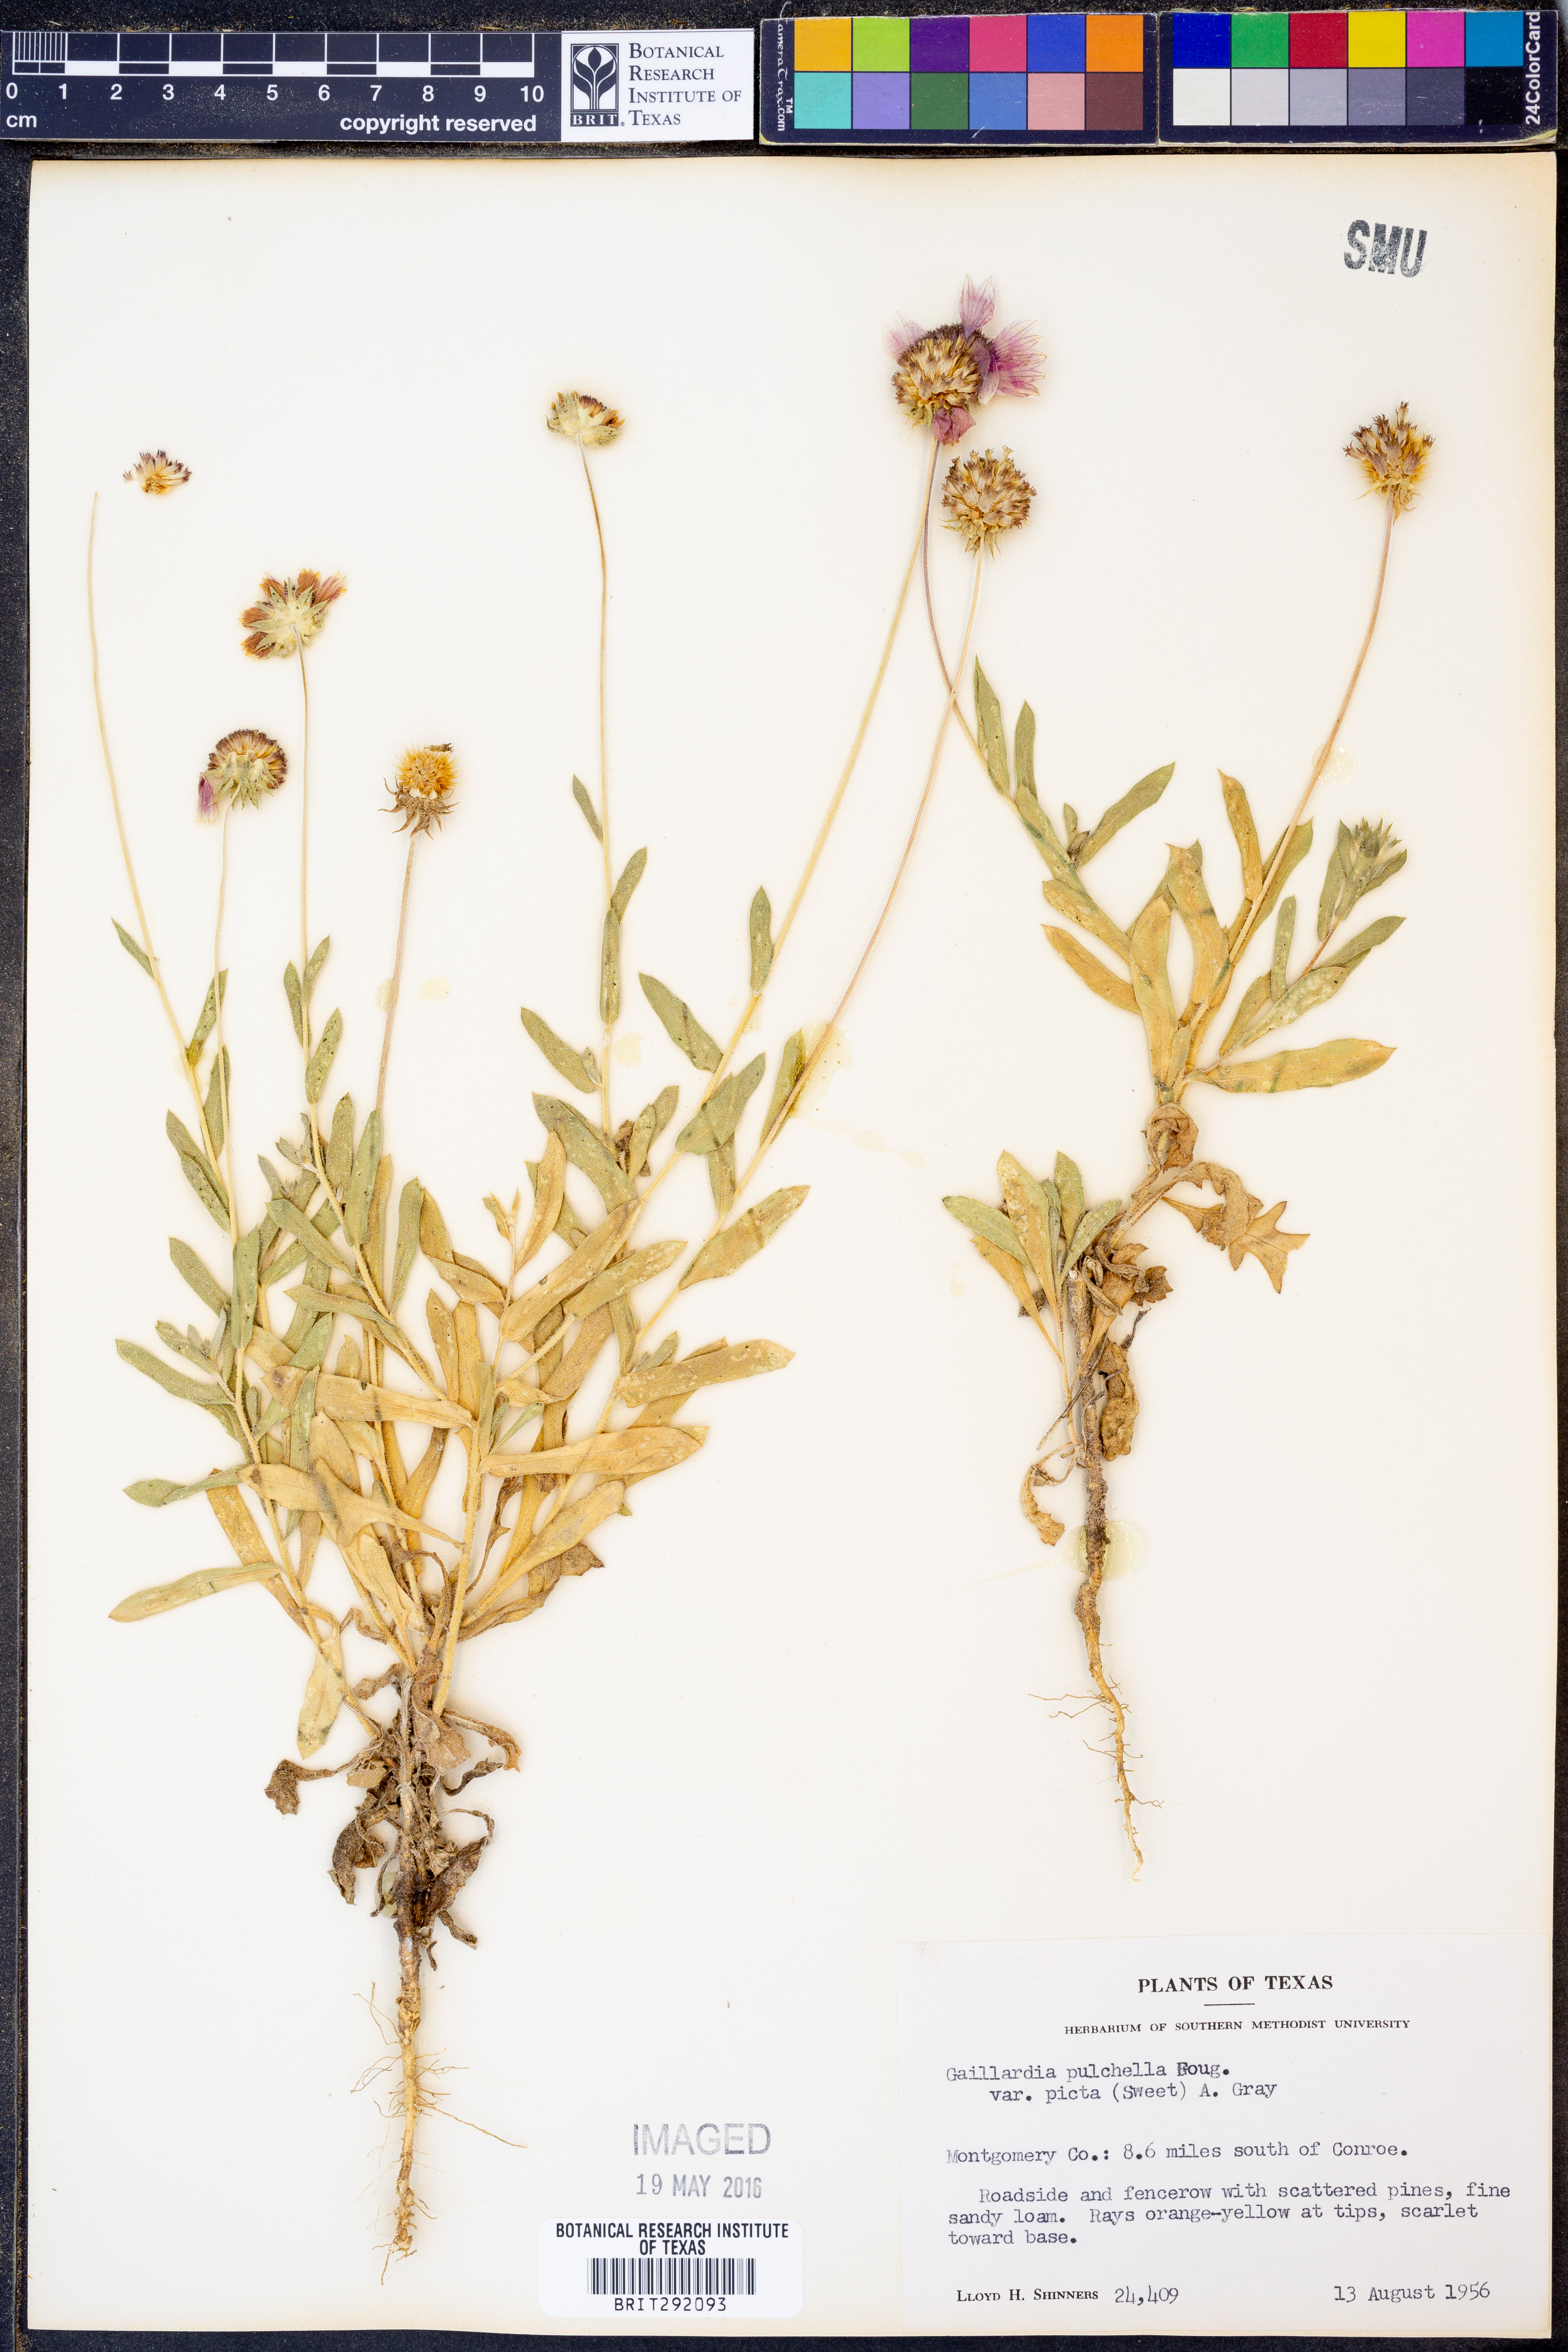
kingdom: Plantae
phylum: Tracheophyta
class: Magnoliopsida
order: Asterales
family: Asteraceae
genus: Gaillardia
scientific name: Gaillardia pulchella
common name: Firewheel
